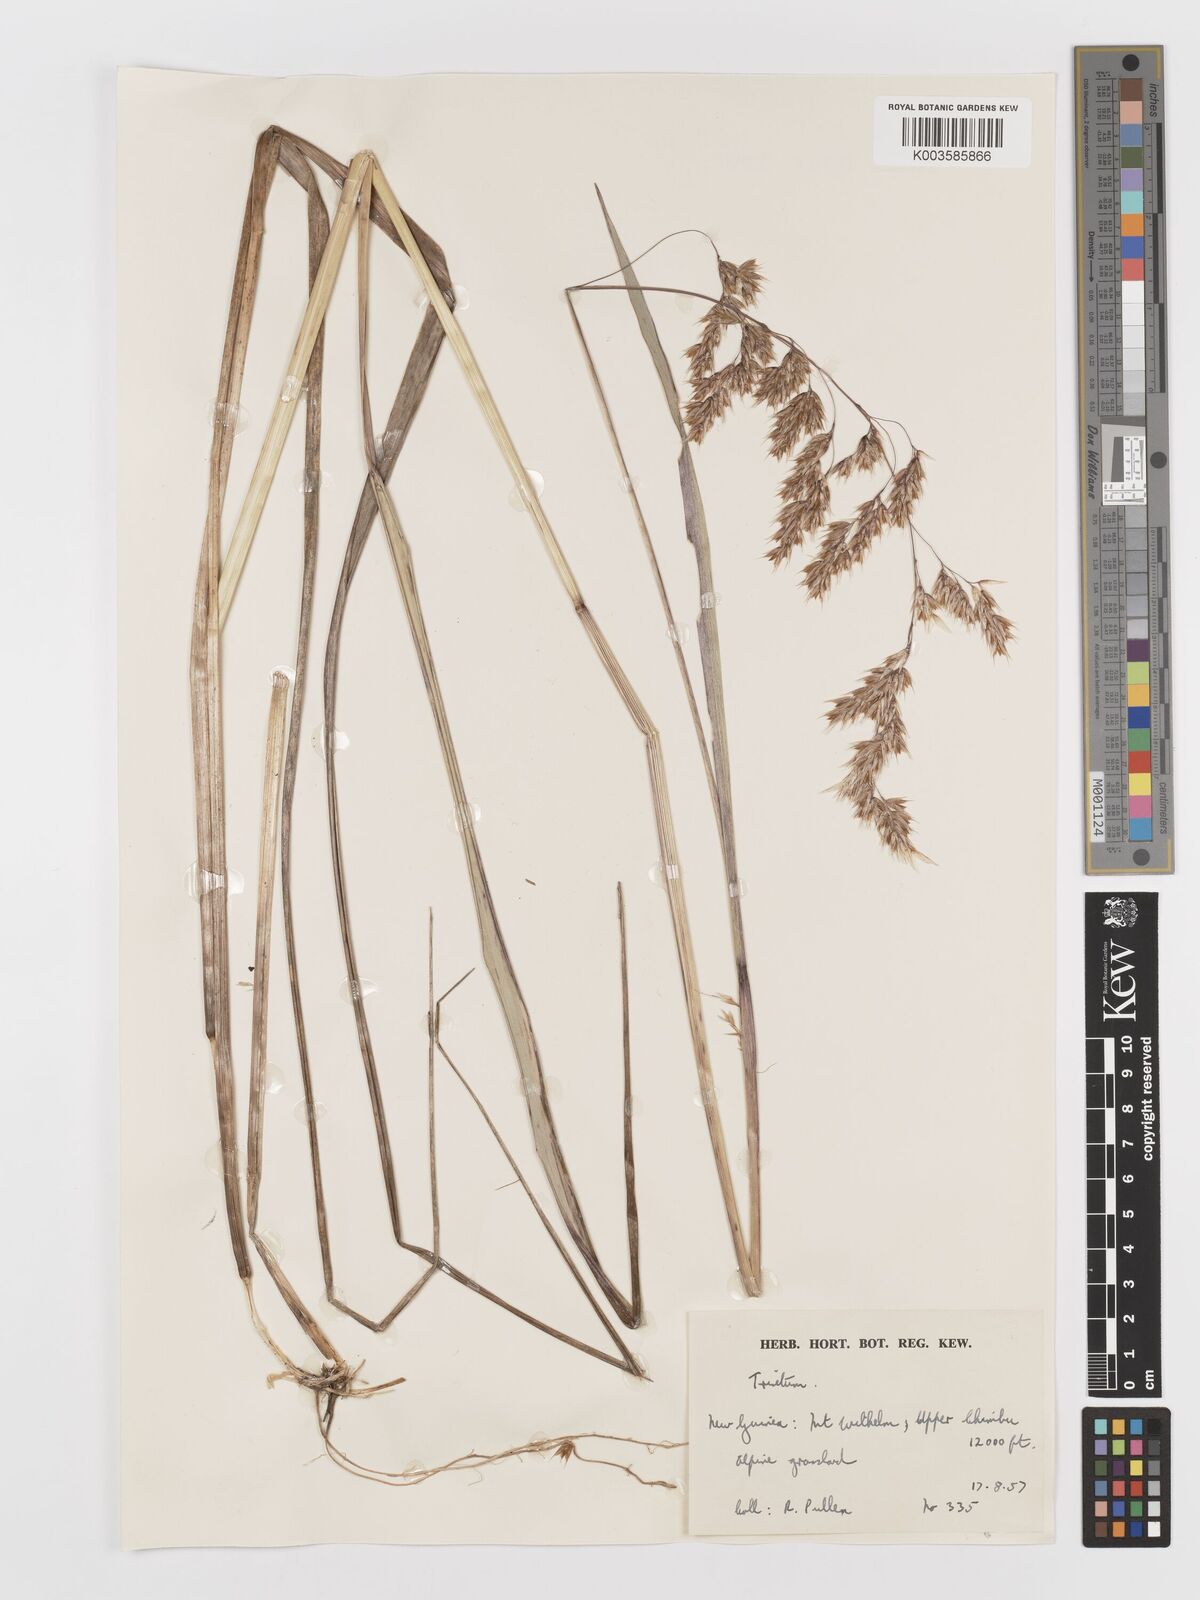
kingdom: Plantae
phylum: Tracheophyta
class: Liliopsida
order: Poales
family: Poaceae
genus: Anthoxanthum
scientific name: Anthoxanthum redolens
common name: Sweet holy grass
